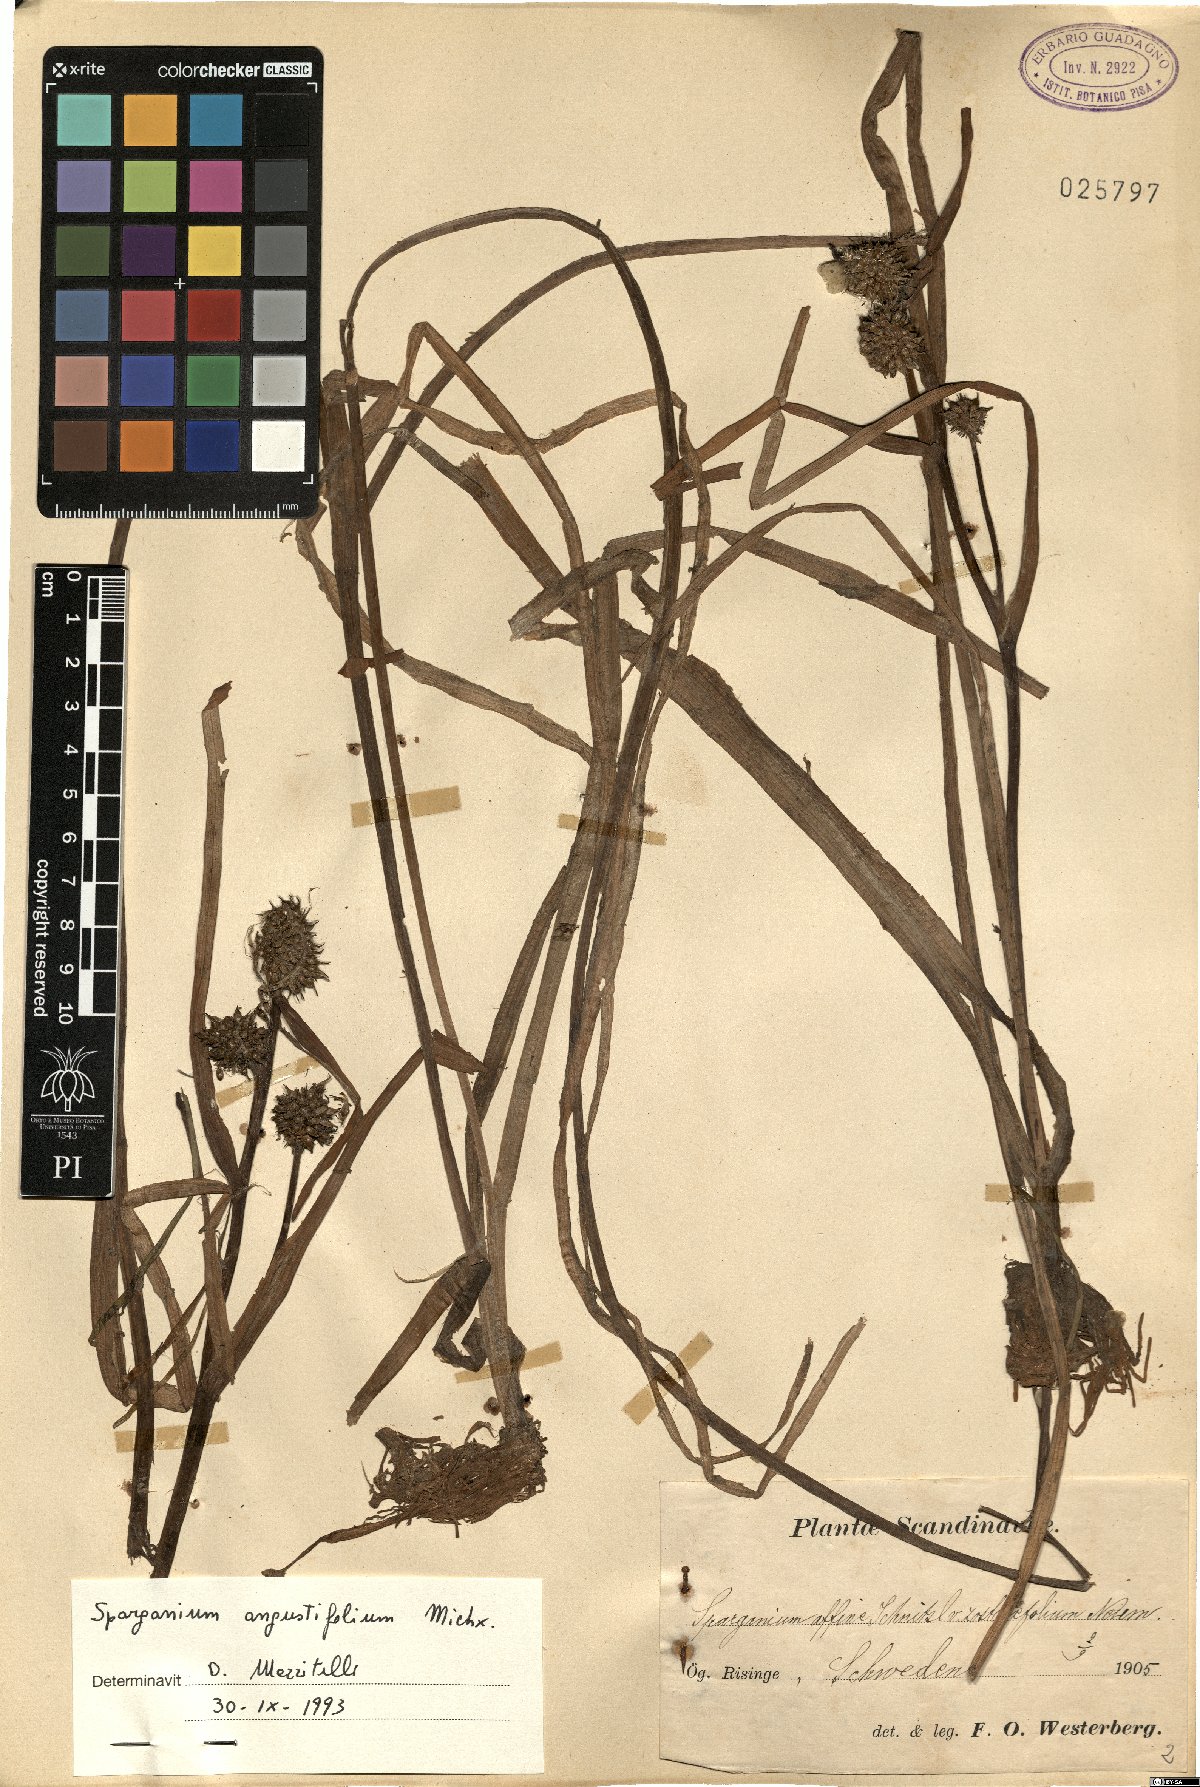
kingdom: Plantae
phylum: Tracheophyta
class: Liliopsida
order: Poales
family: Typhaceae
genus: Sparganium
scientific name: Sparganium angustifolium
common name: Floating bur-reed
